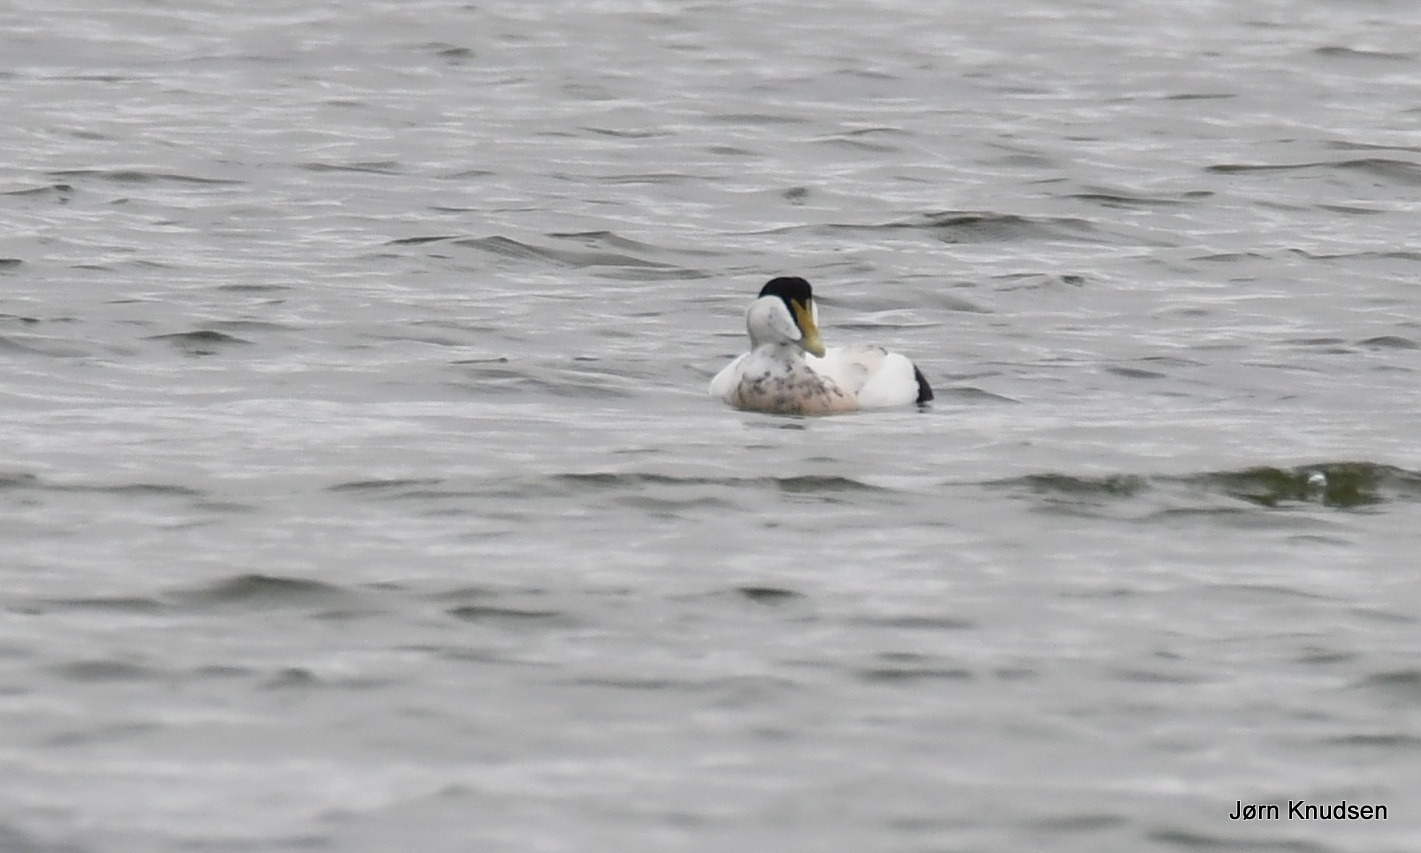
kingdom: Animalia
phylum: Chordata
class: Aves
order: Anseriformes
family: Anatidae
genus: Somateria
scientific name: Somateria mollissima
